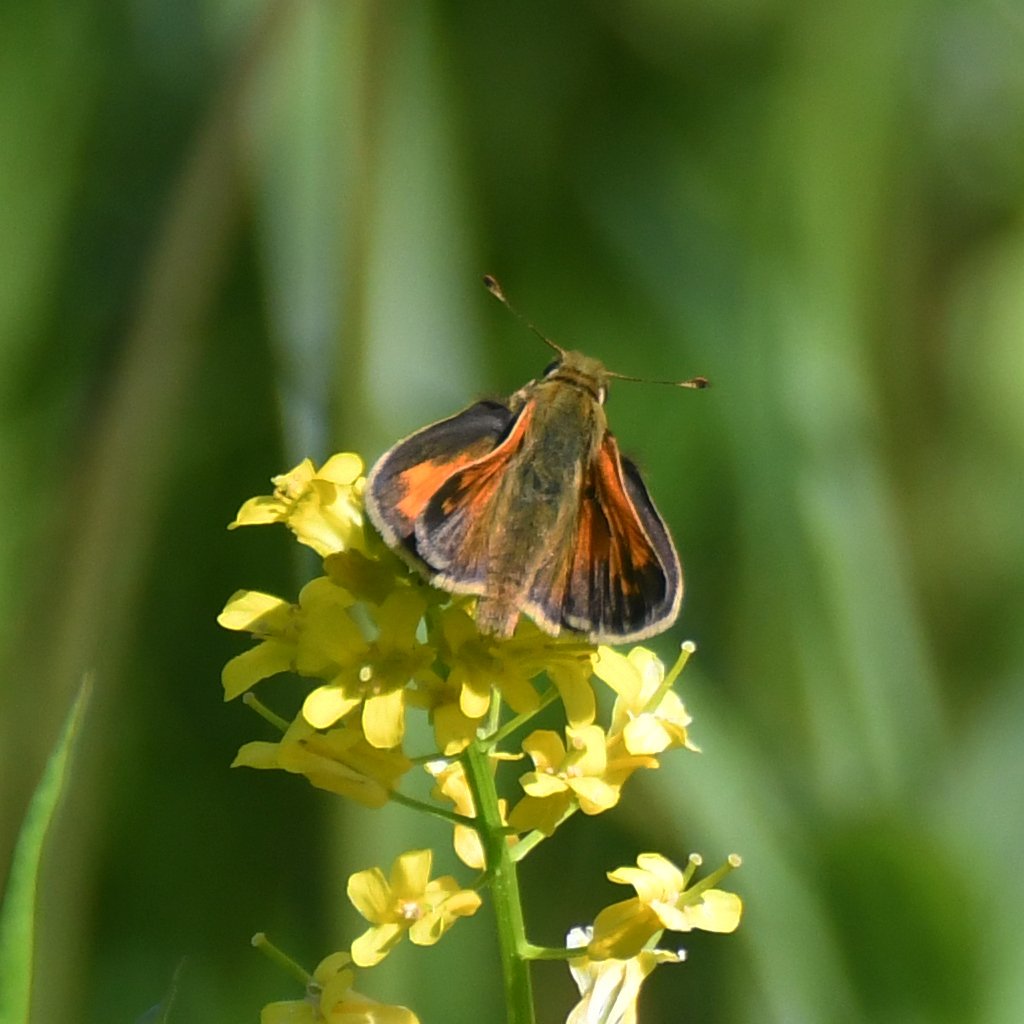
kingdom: Animalia
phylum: Arthropoda
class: Insecta
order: Lepidoptera
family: Hesperiidae
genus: Lon
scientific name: Lon hobomok
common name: Hobomok Skipper
